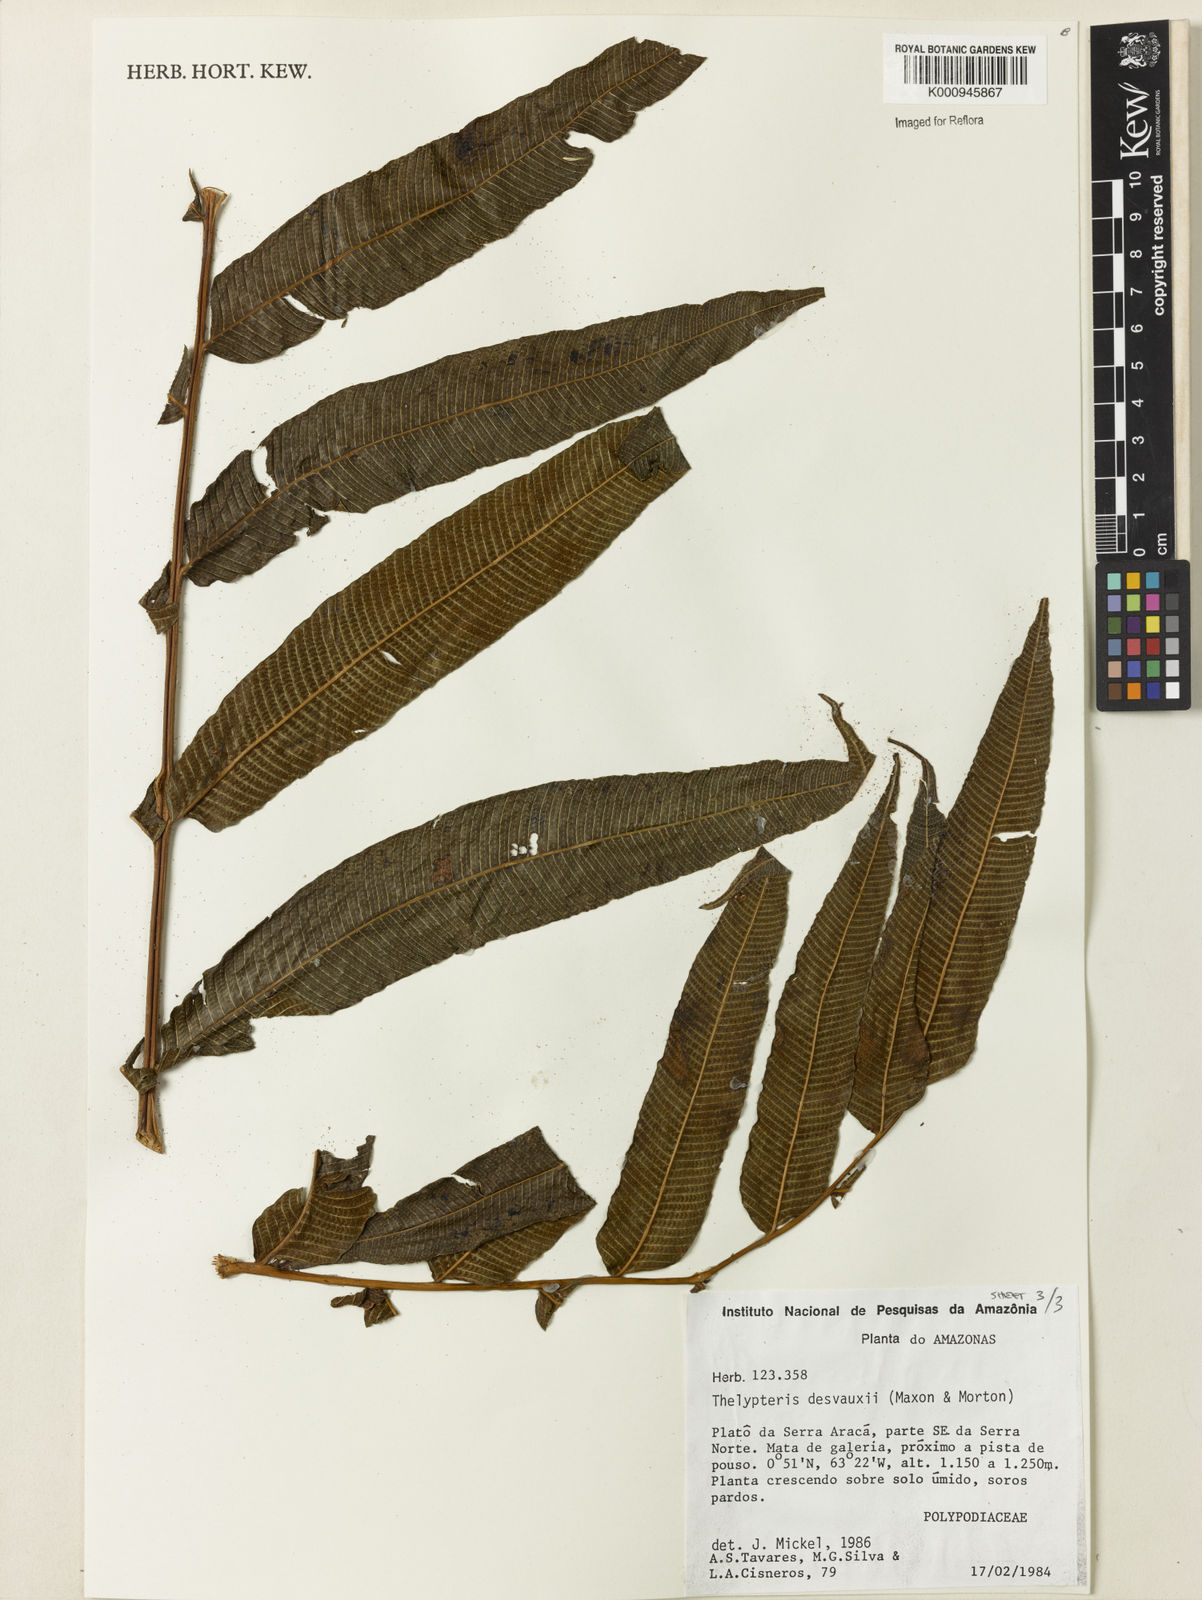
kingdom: Plantae
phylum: Tracheophyta
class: Polypodiopsida
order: Polypodiales
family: Thelypteridaceae
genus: Meniscium
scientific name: Meniscium arborescens
